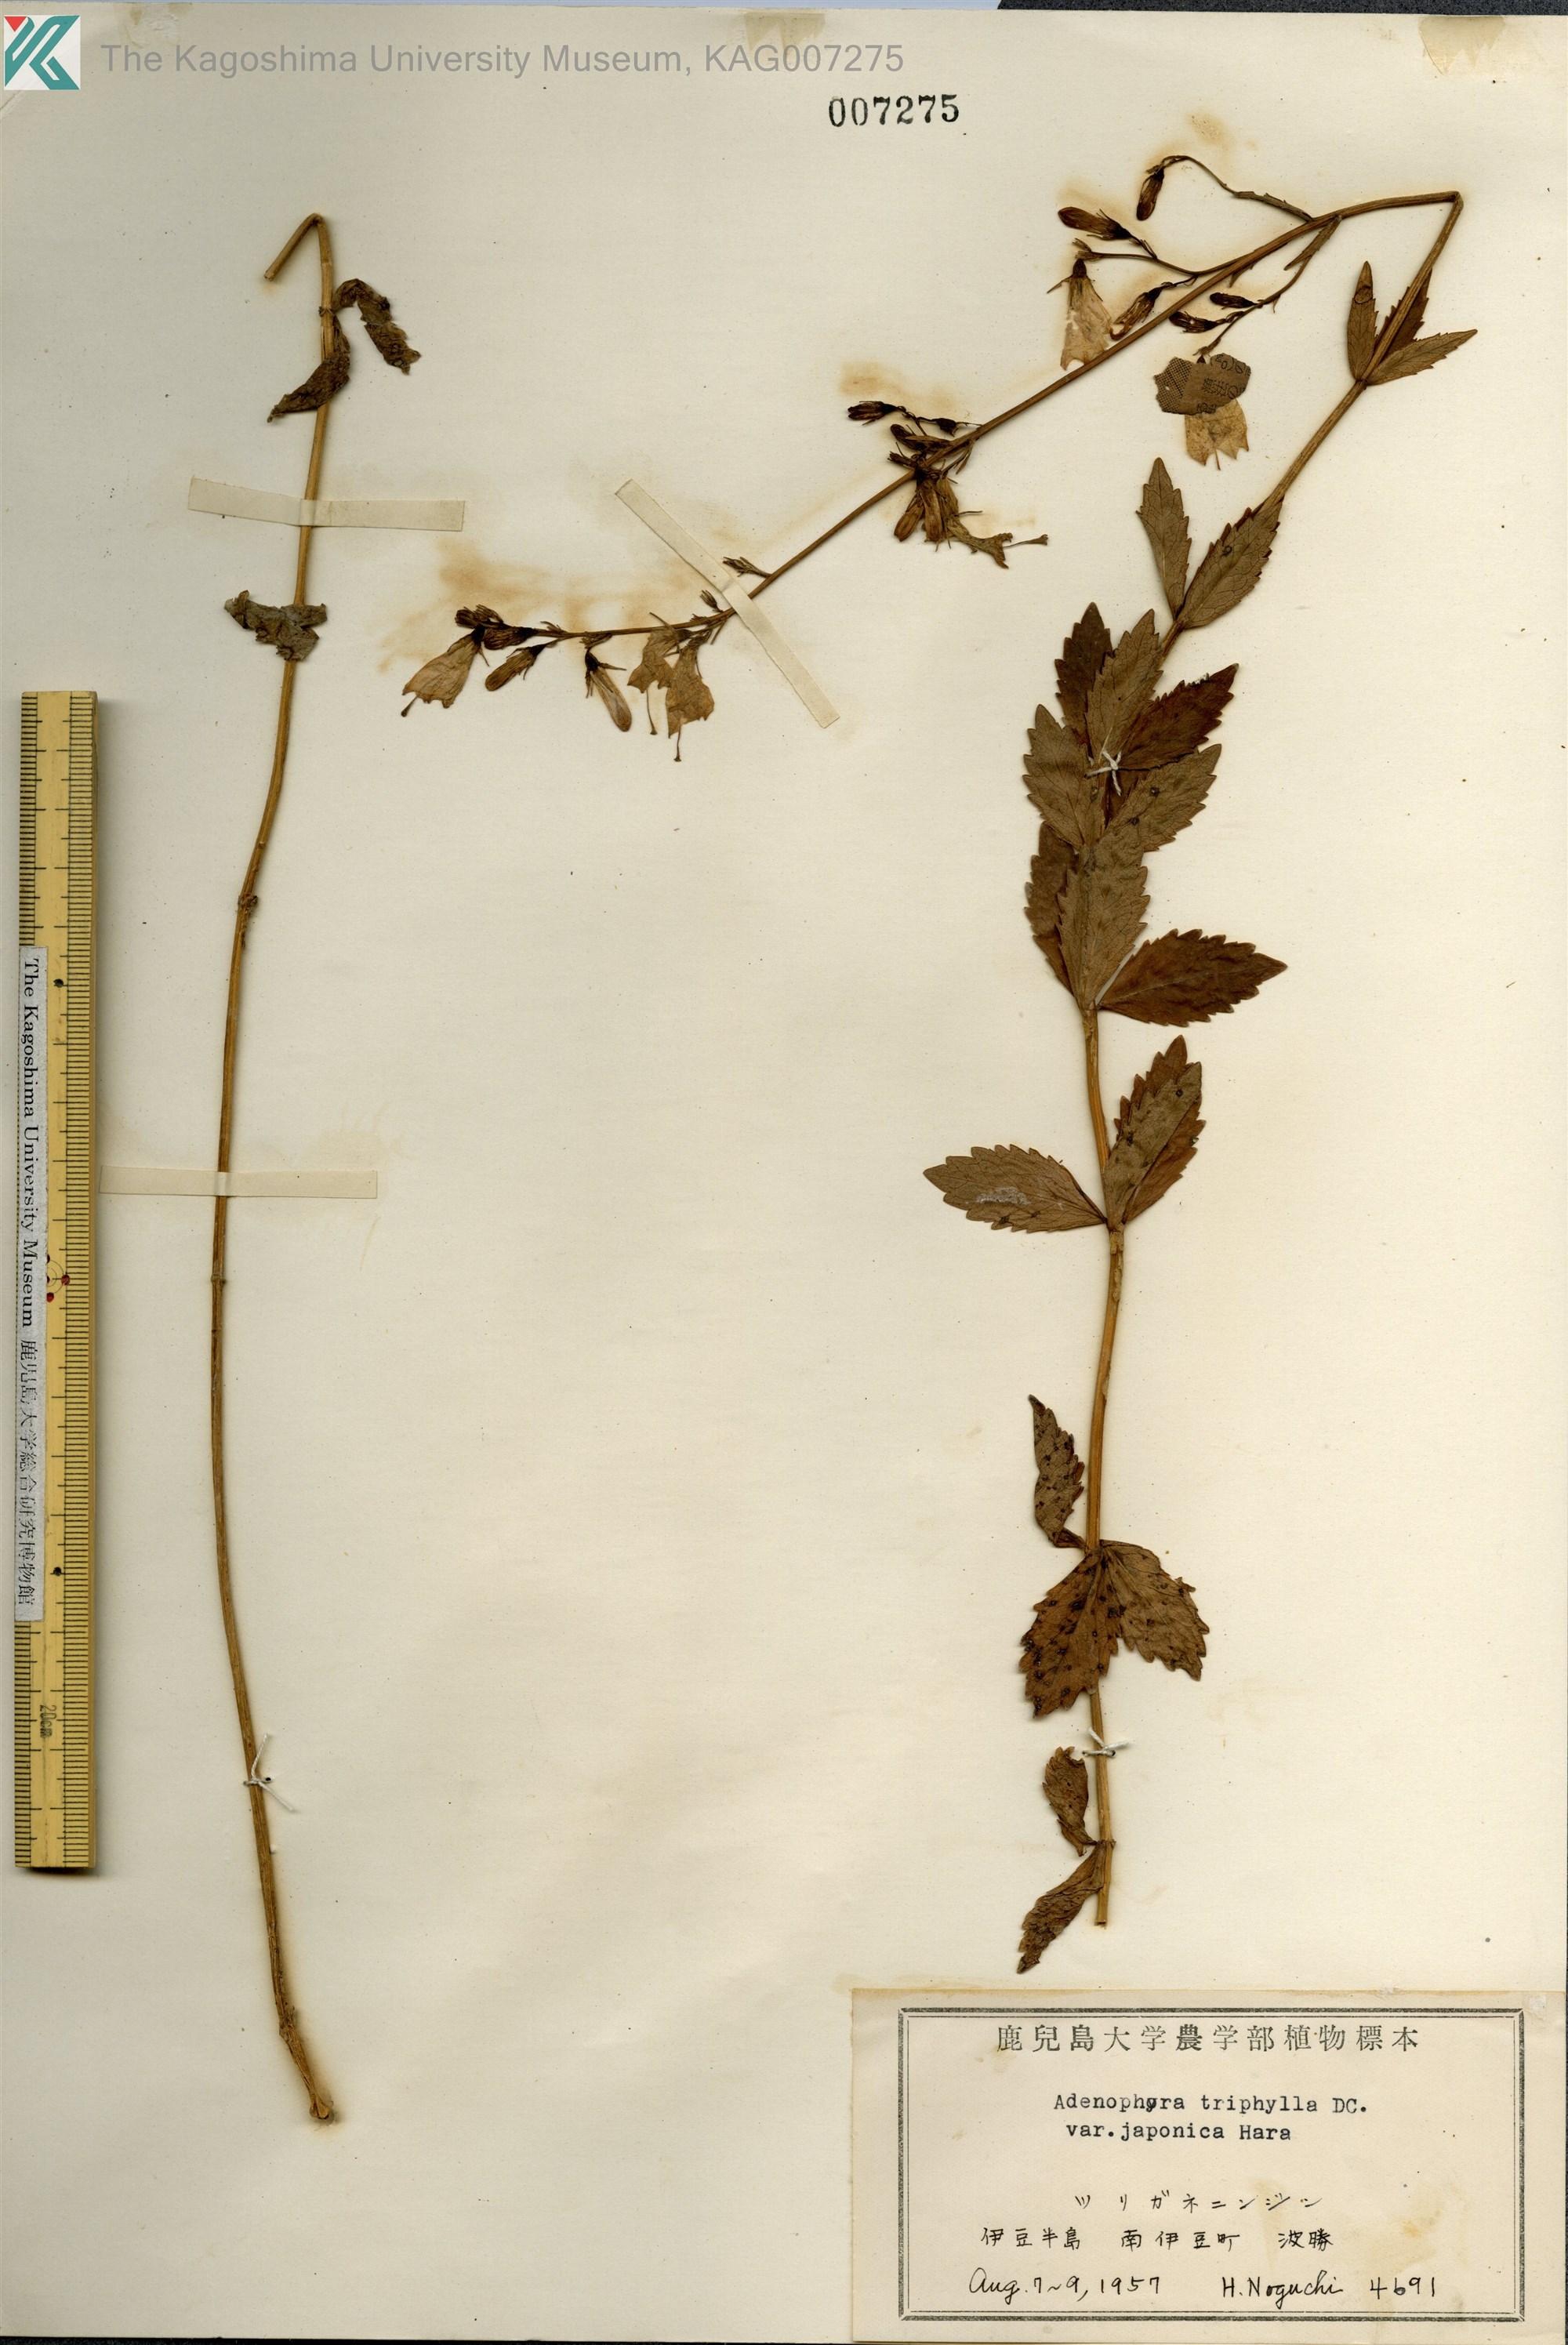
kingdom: Plantae
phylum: Tracheophyta
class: Magnoliopsida
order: Asterales
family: Campanulaceae
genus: Adenophora
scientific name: Adenophora triphylla
